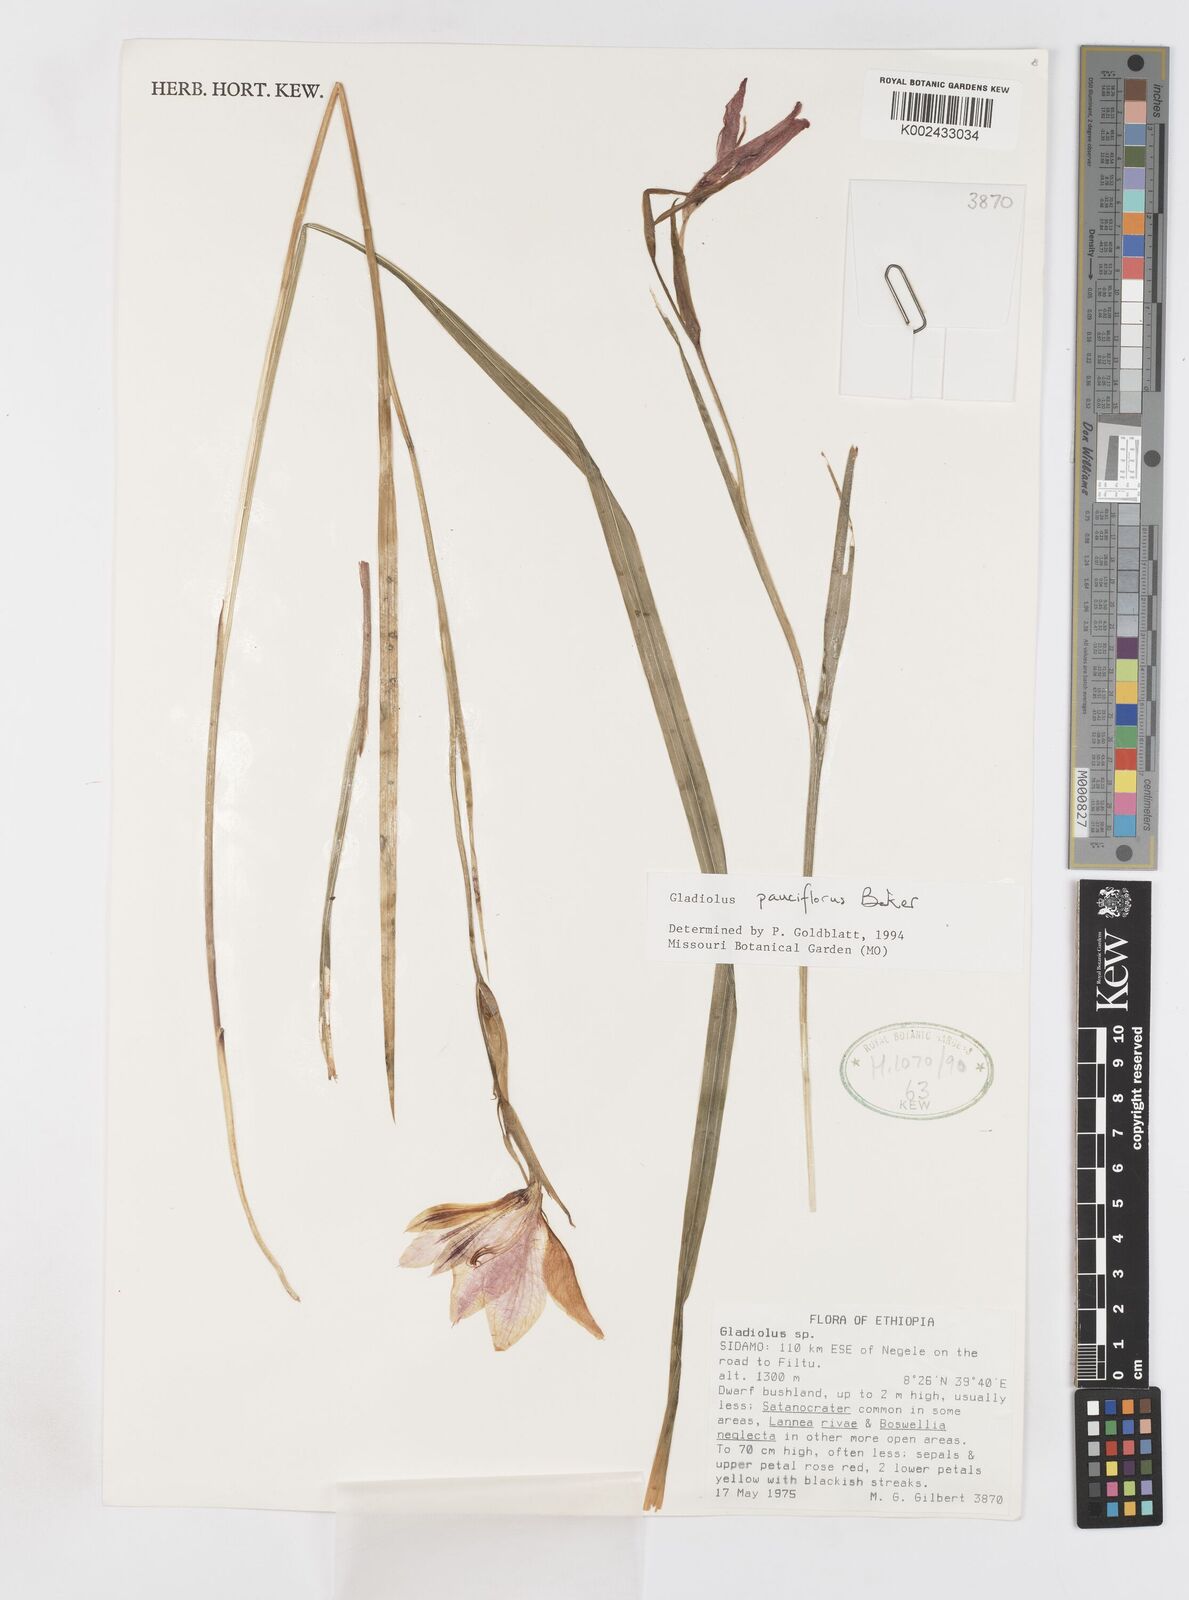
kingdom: Plantae
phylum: Tracheophyta
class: Liliopsida
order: Asparagales
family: Iridaceae
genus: Gladiolus
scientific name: Gladiolus pauciflorus
